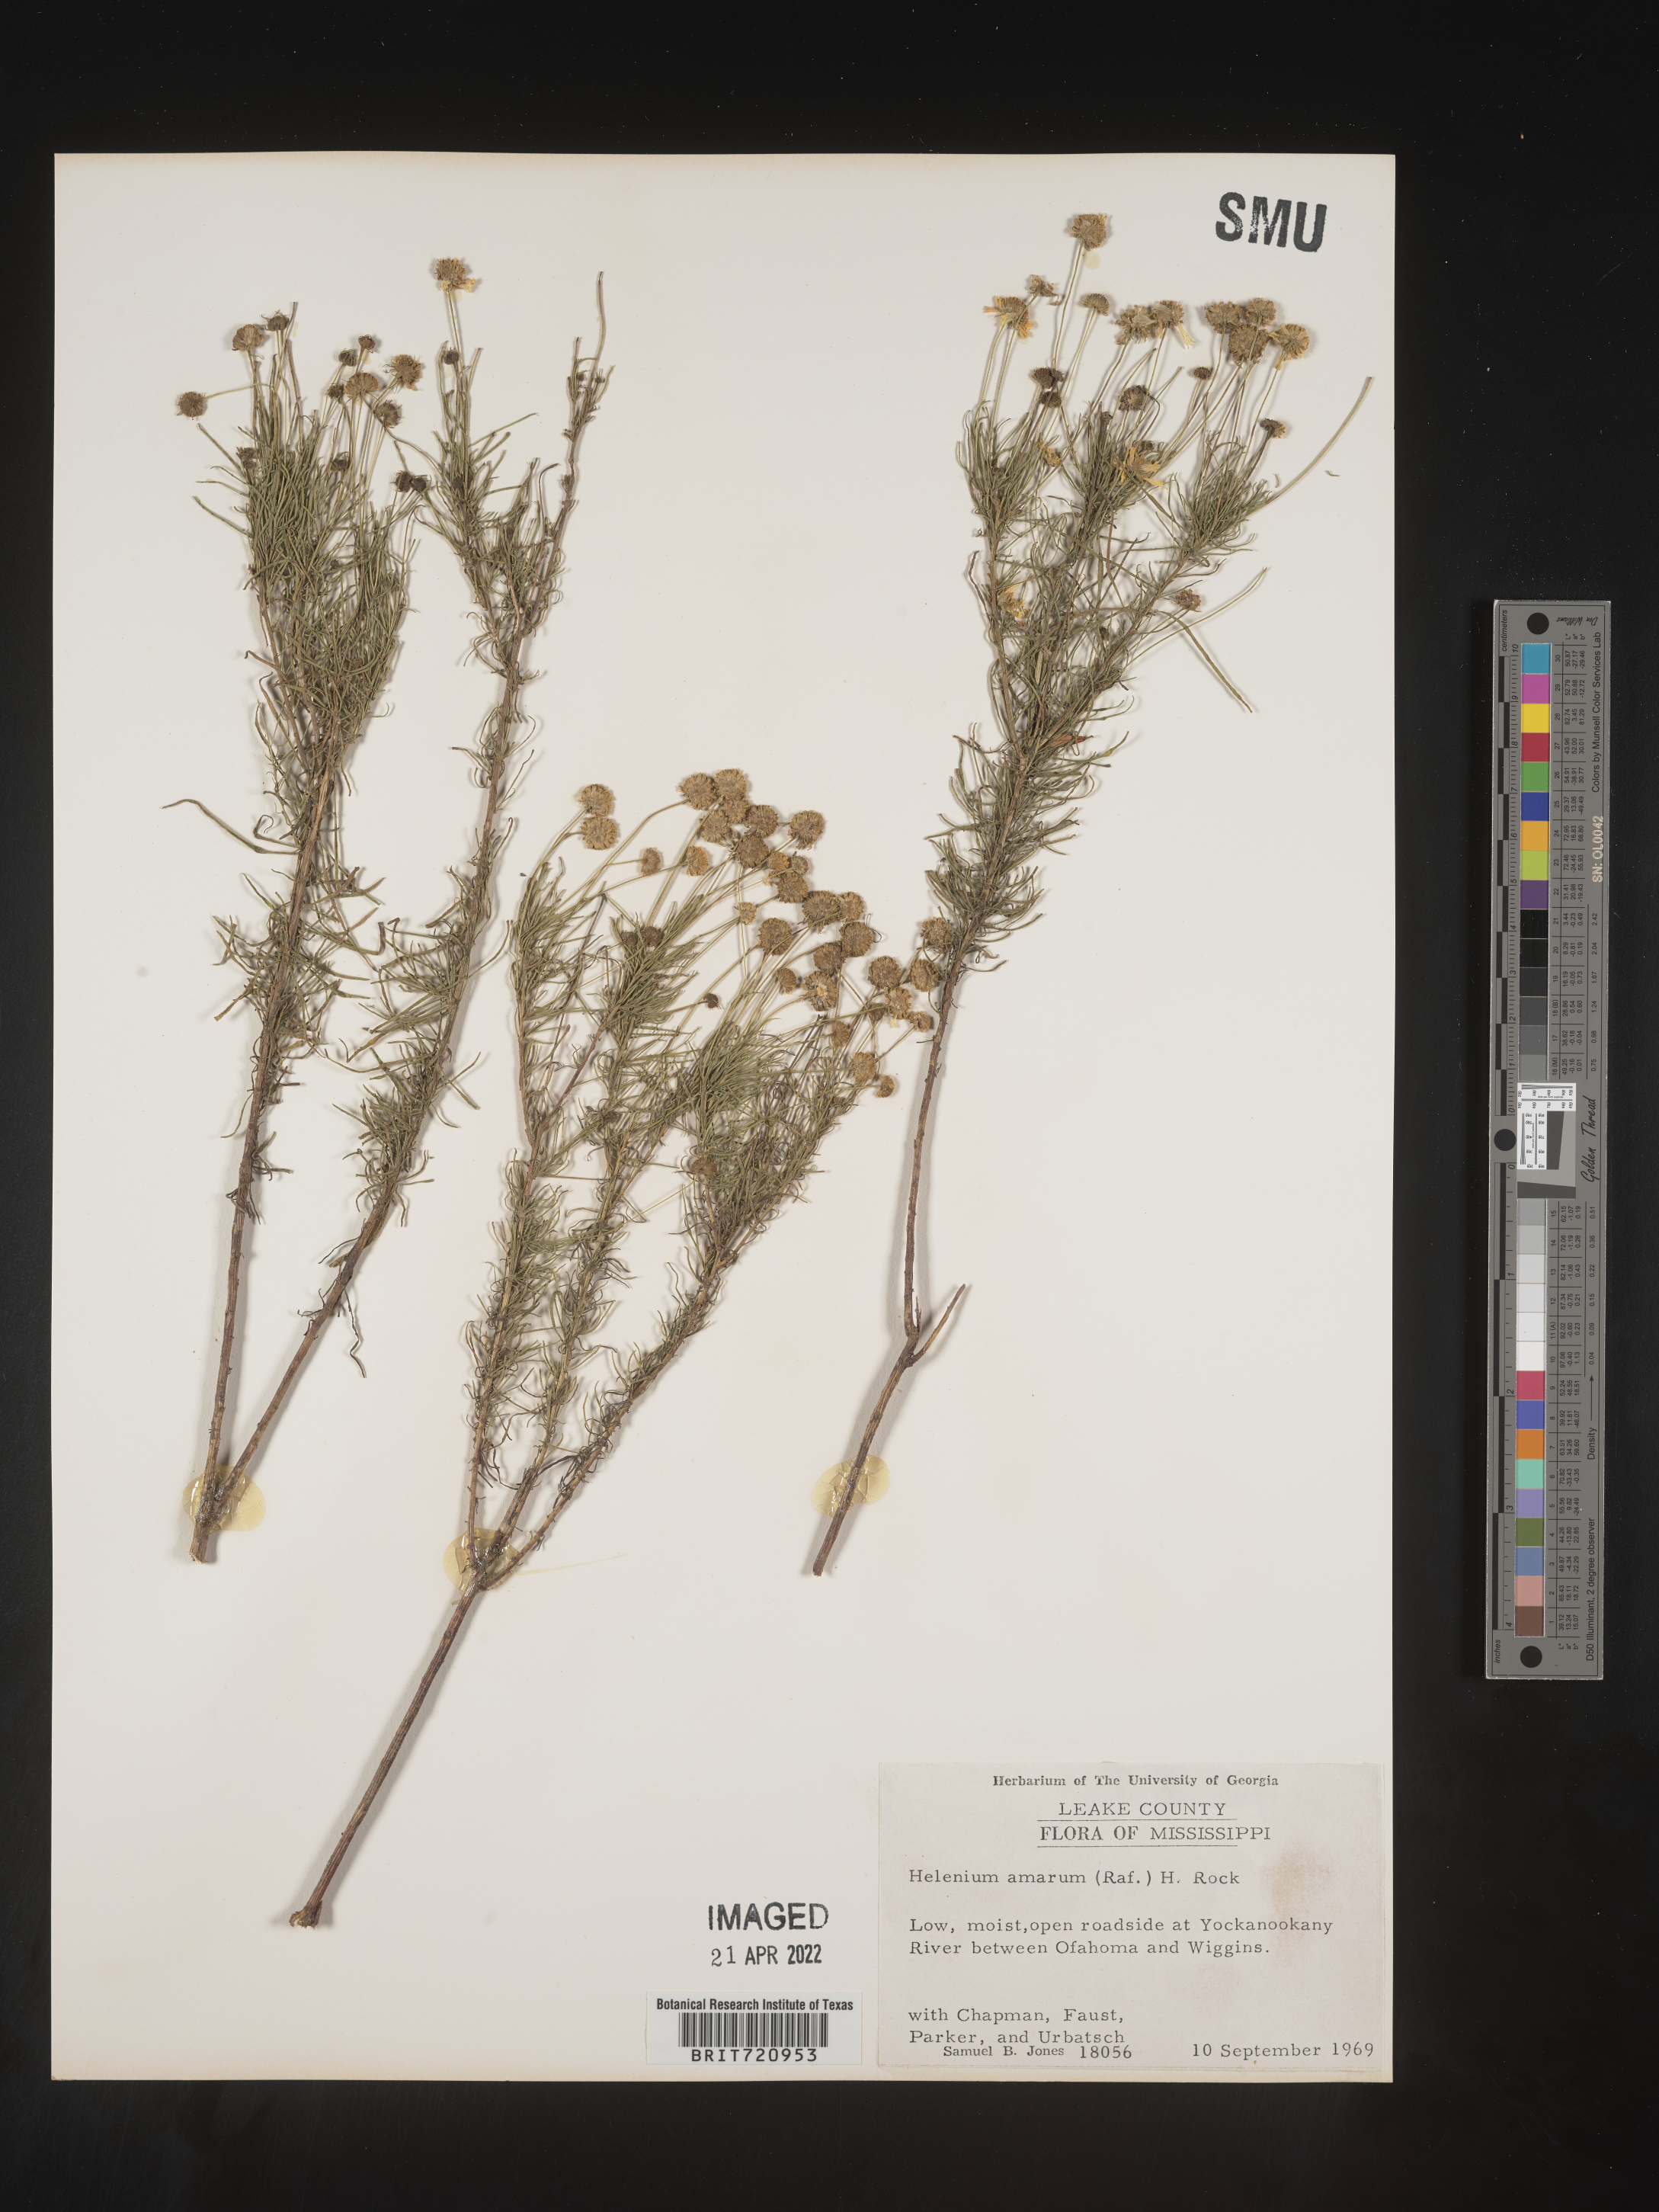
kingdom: Plantae
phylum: Tracheophyta
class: Magnoliopsida
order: Asterales
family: Asteraceae
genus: Helenium
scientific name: Helenium amarum
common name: Bitter sneezeweed
